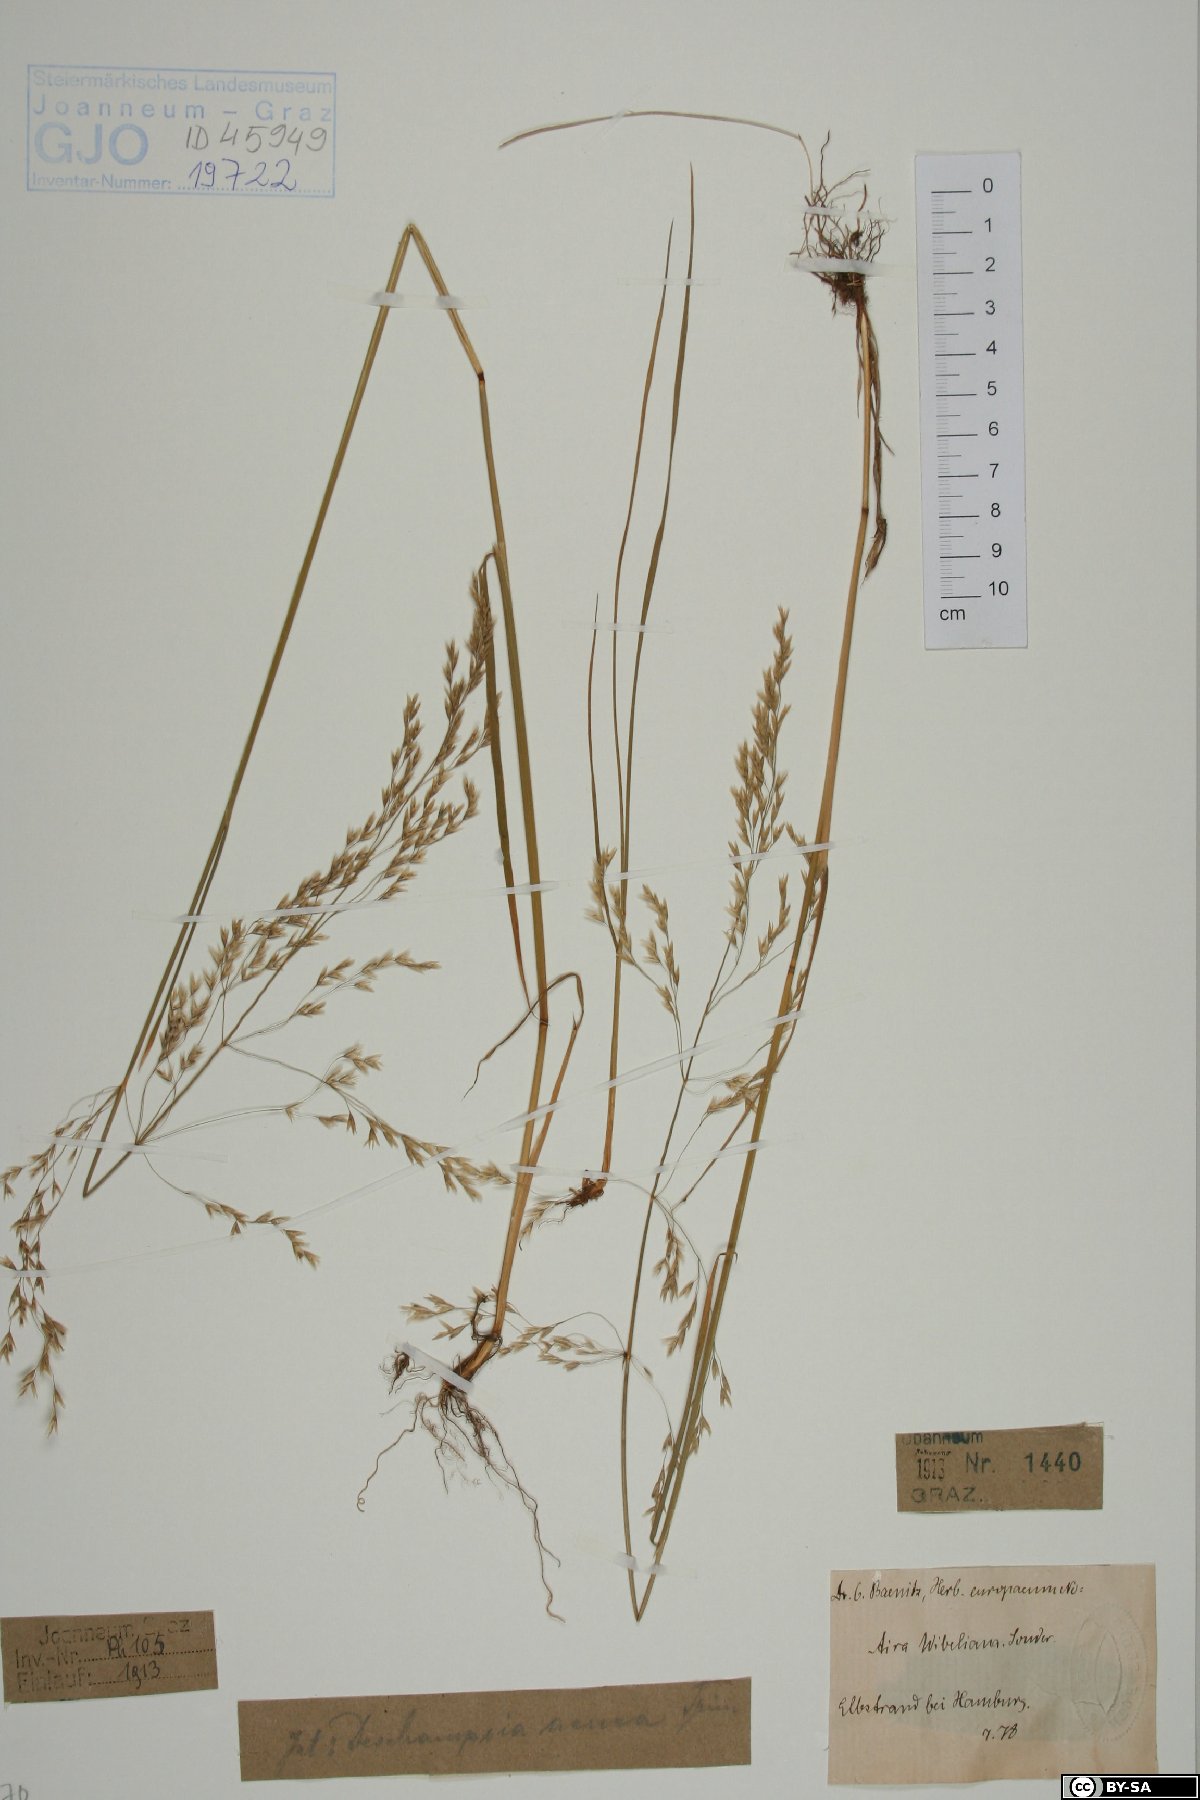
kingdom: Plantae
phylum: Tracheophyta
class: Liliopsida
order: Poales
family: Poaceae
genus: Deschampsia
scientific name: Deschampsia cespitosa
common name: Tufted hair-grass
